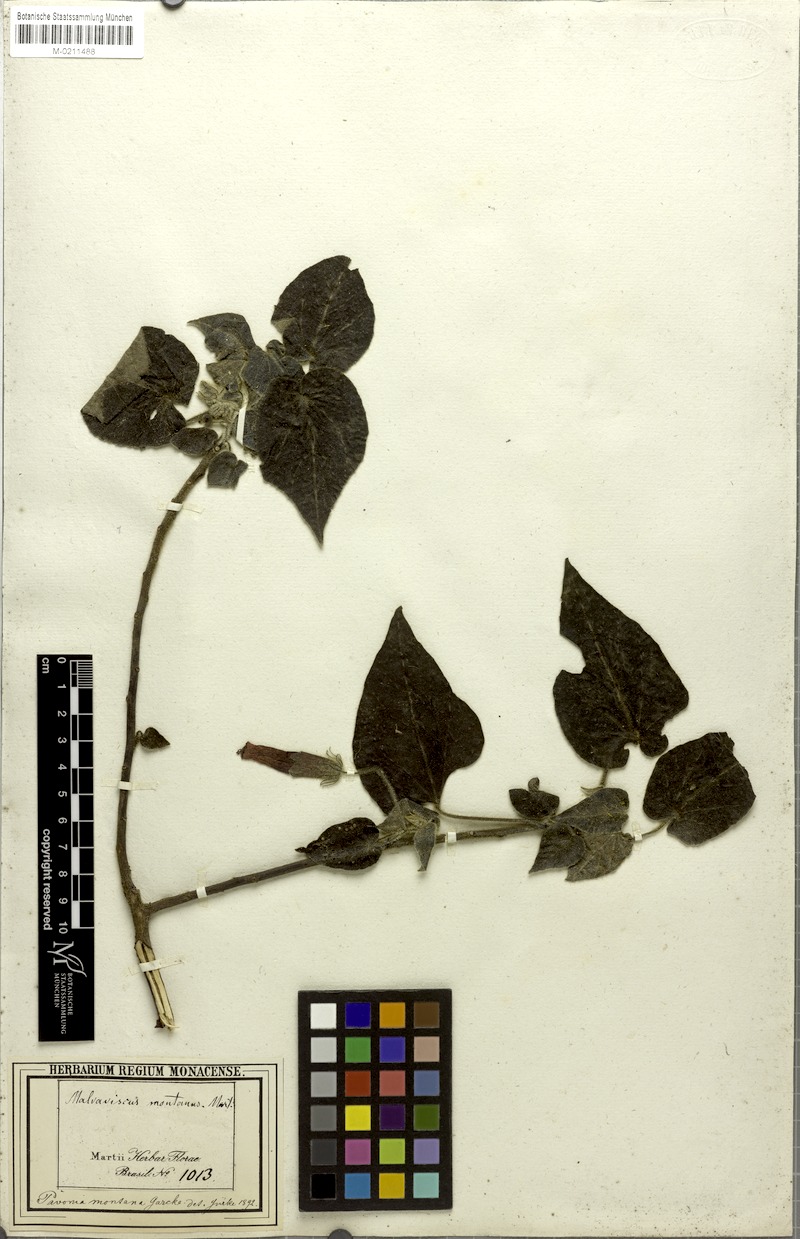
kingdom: Plantae
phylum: Tracheophyta
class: Magnoliopsida
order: Malvales
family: Malvaceae
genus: Pavonia
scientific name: Pavonia montana
